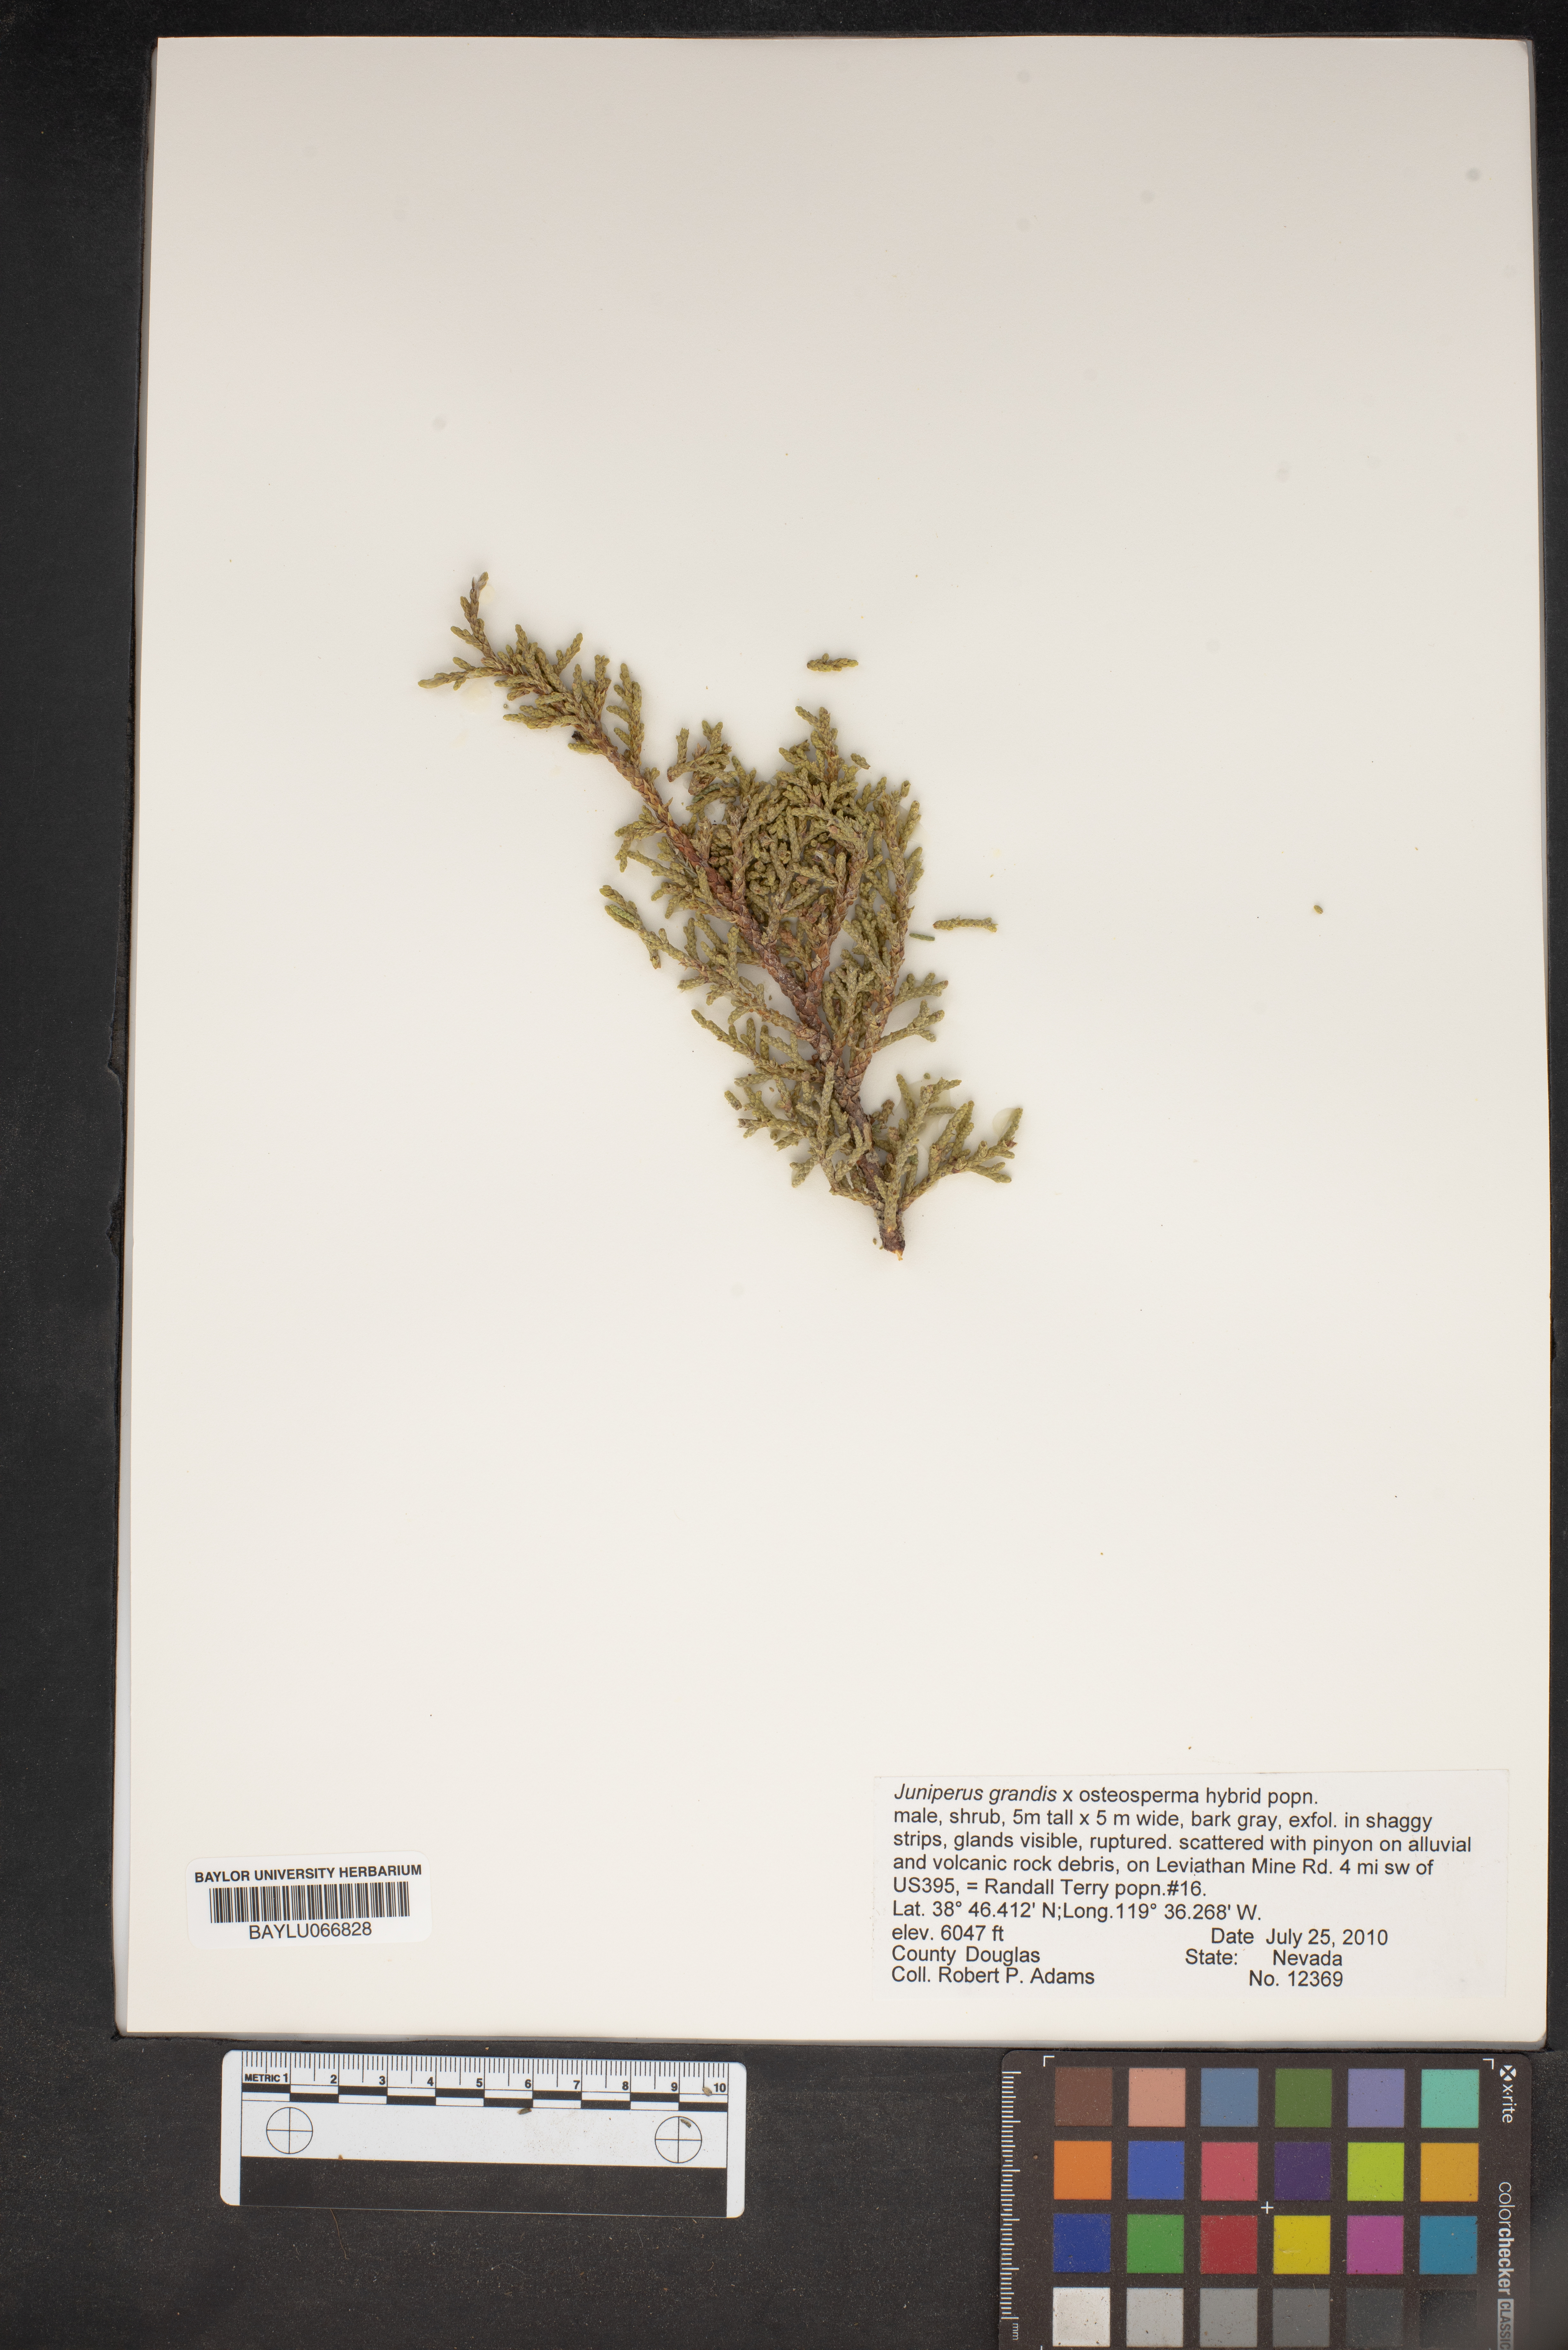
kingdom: Plantae
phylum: Tracheophyta
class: Pinopsida
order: Pinales
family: Cupressaceae
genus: Juniperus
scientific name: Juniperus occidentalis
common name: Western juniper
